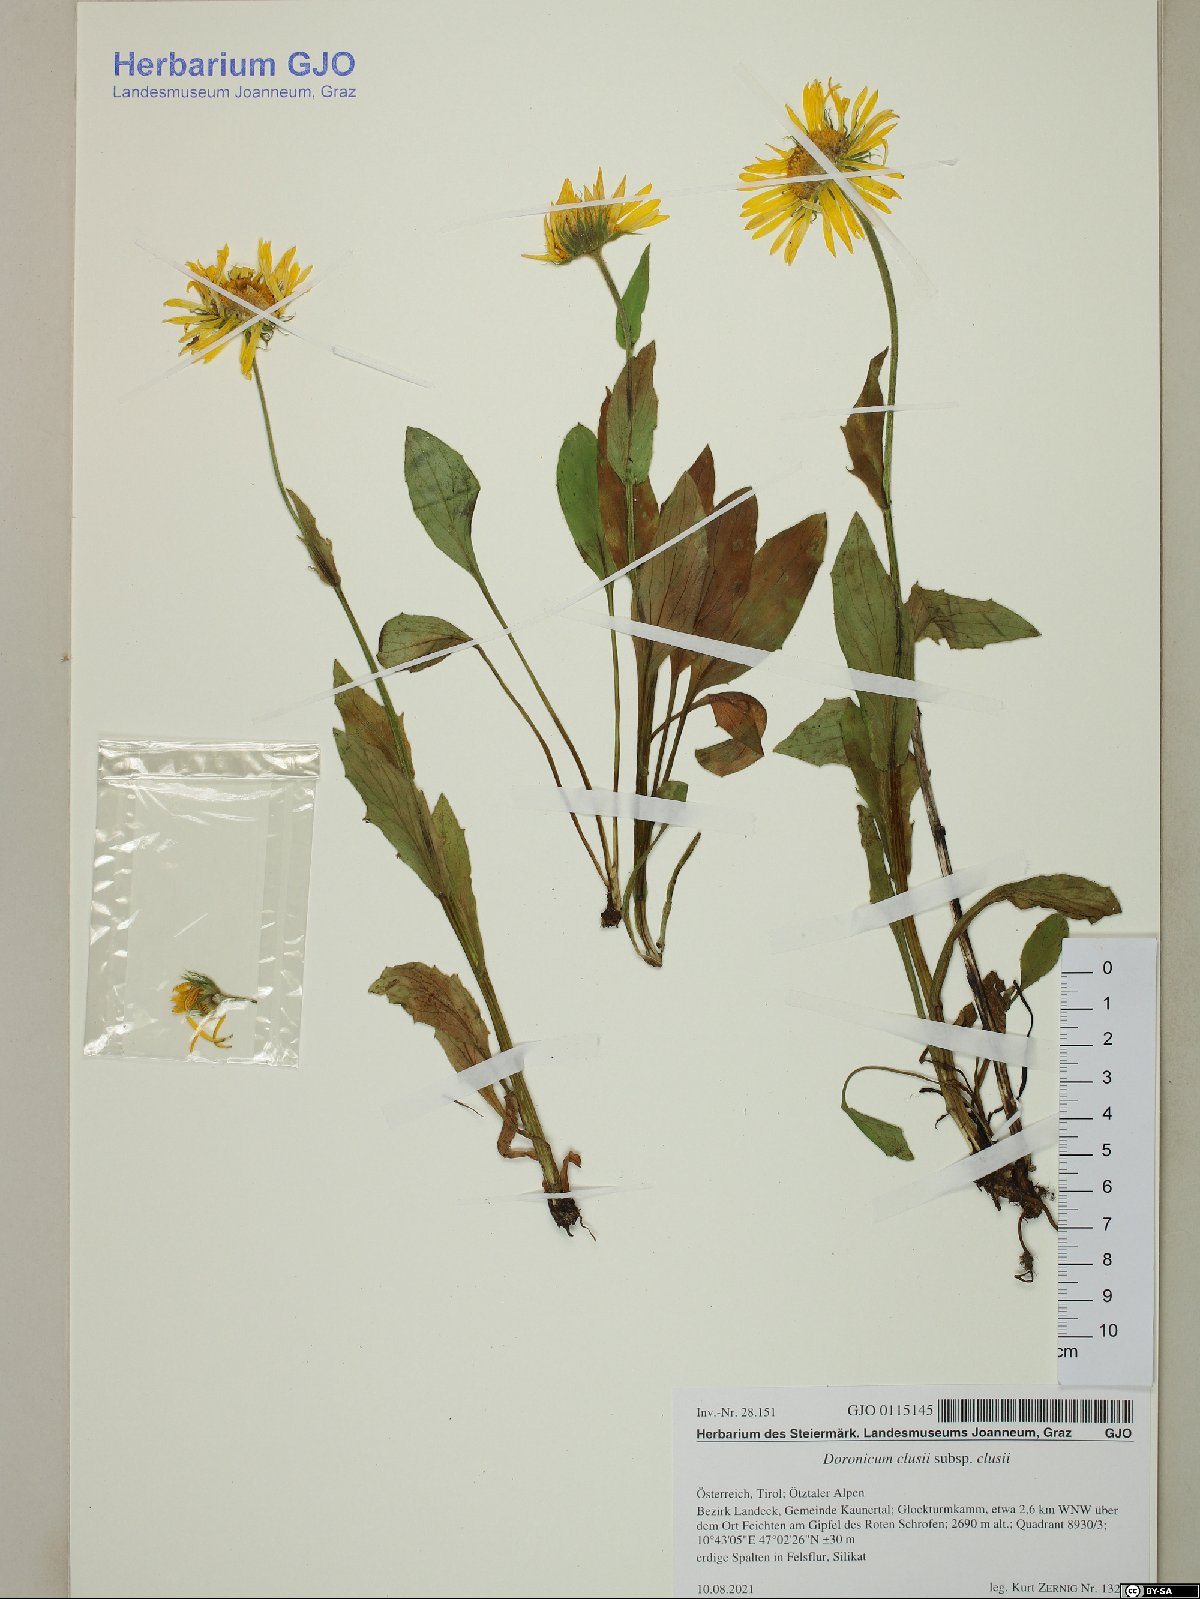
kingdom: Plantae
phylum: Tracheophyta
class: Magnoliopsida
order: Asterales
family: Asteraceae
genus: Doronicum
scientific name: Doronicum clusii
